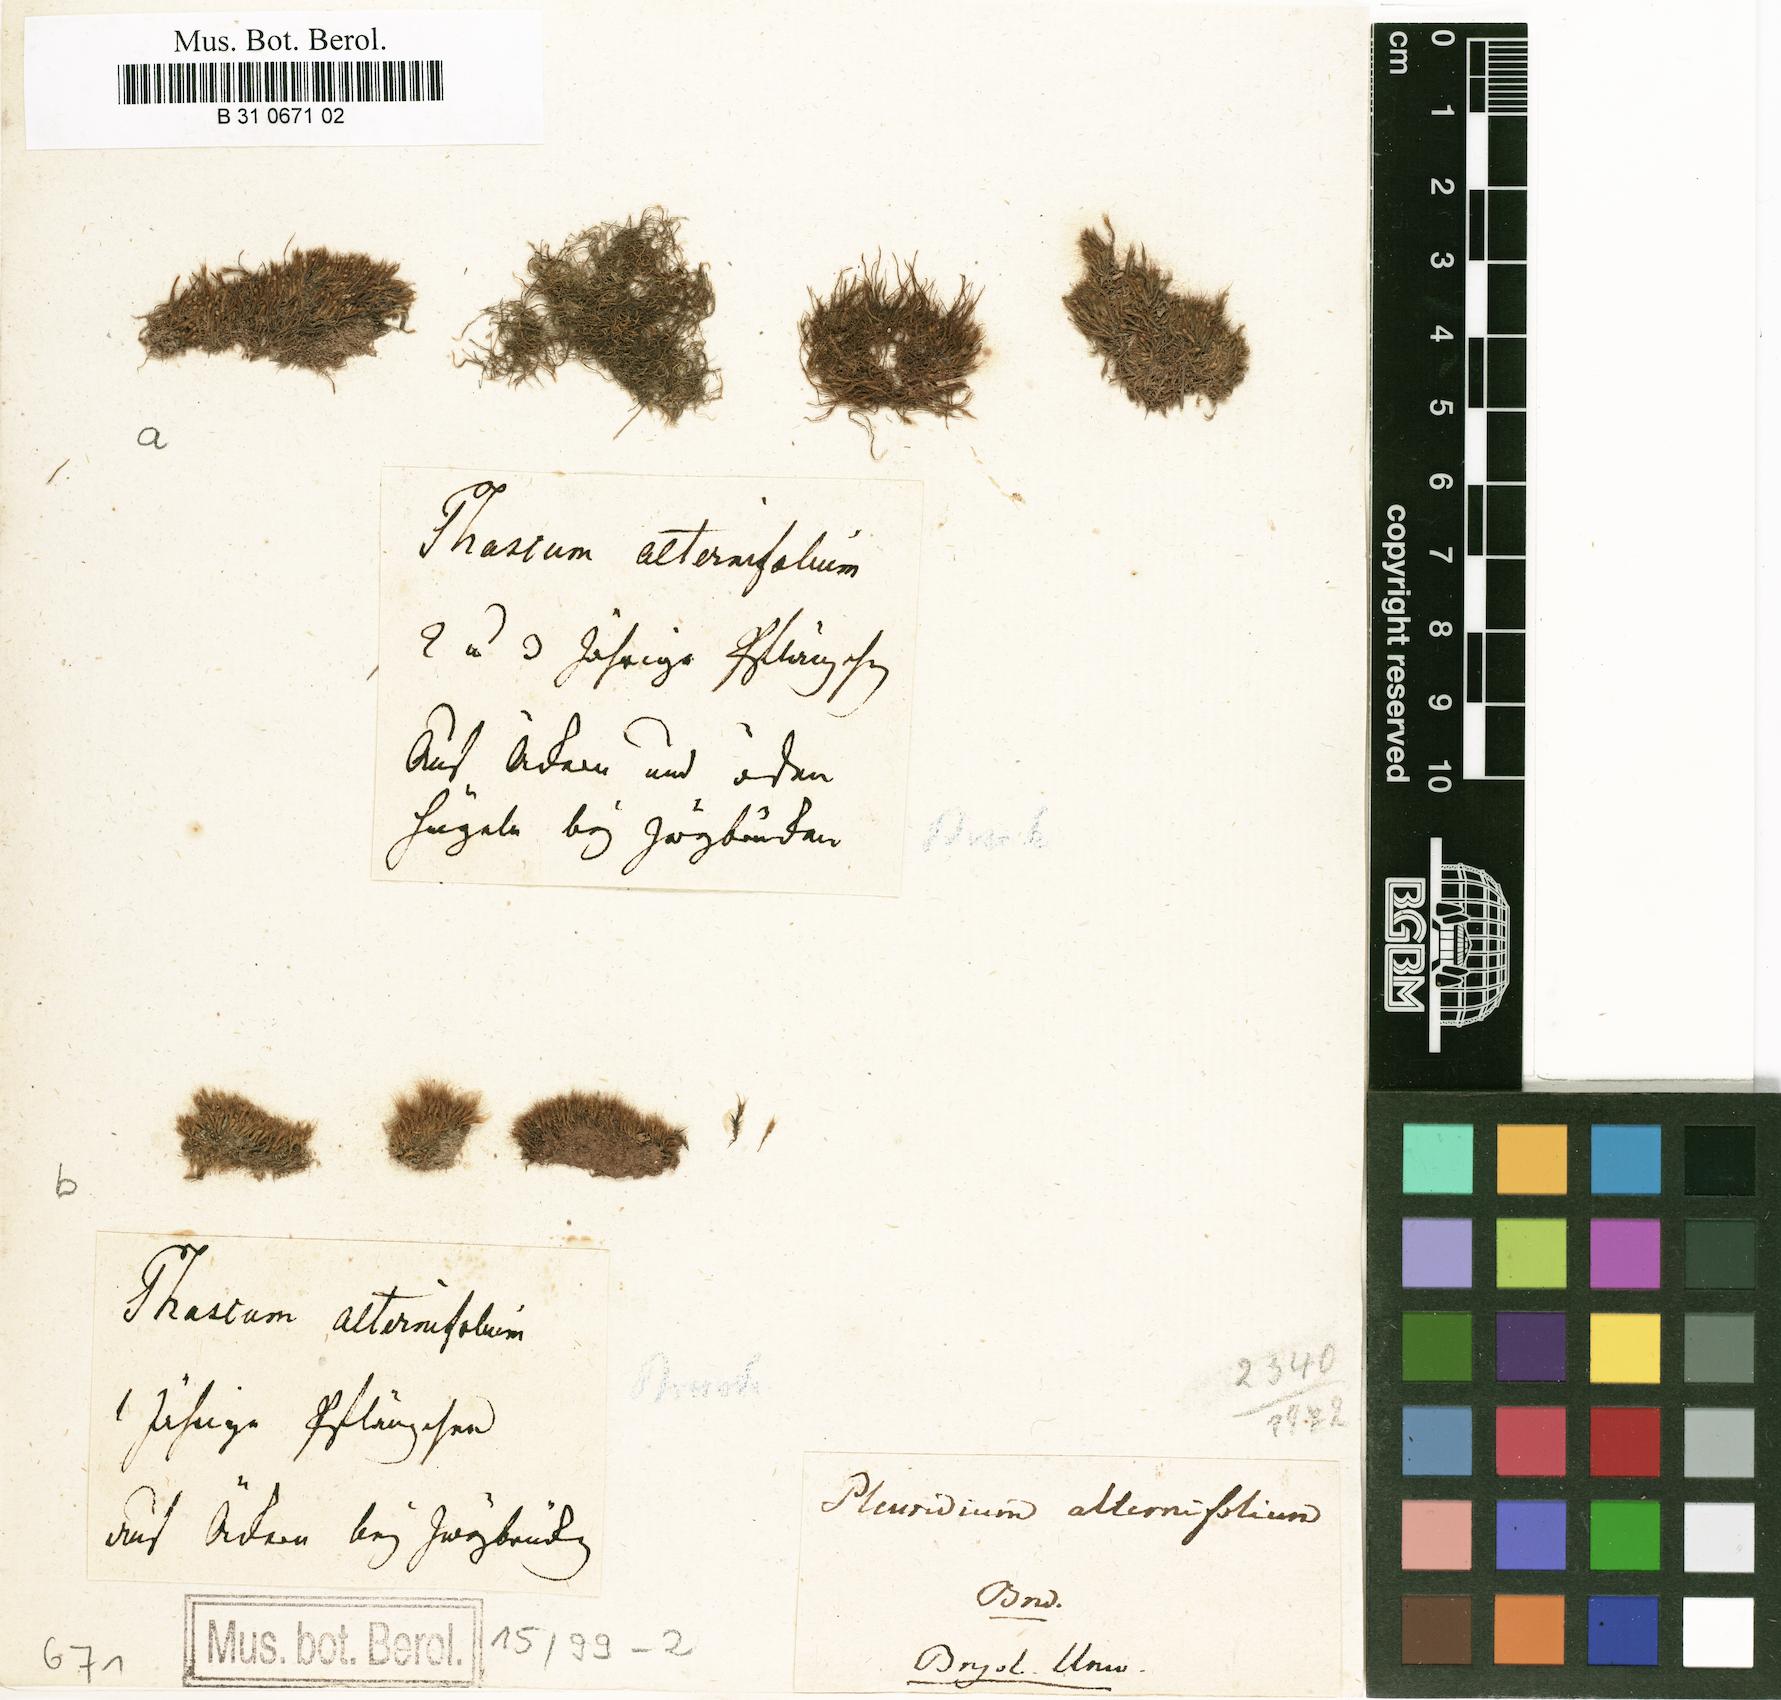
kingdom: Plantae
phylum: Bryophyta
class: Bryopsida
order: Archidiales
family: Archidiaceae
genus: Archidium
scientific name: Archidium alternifolium
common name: Clay earth-moss
